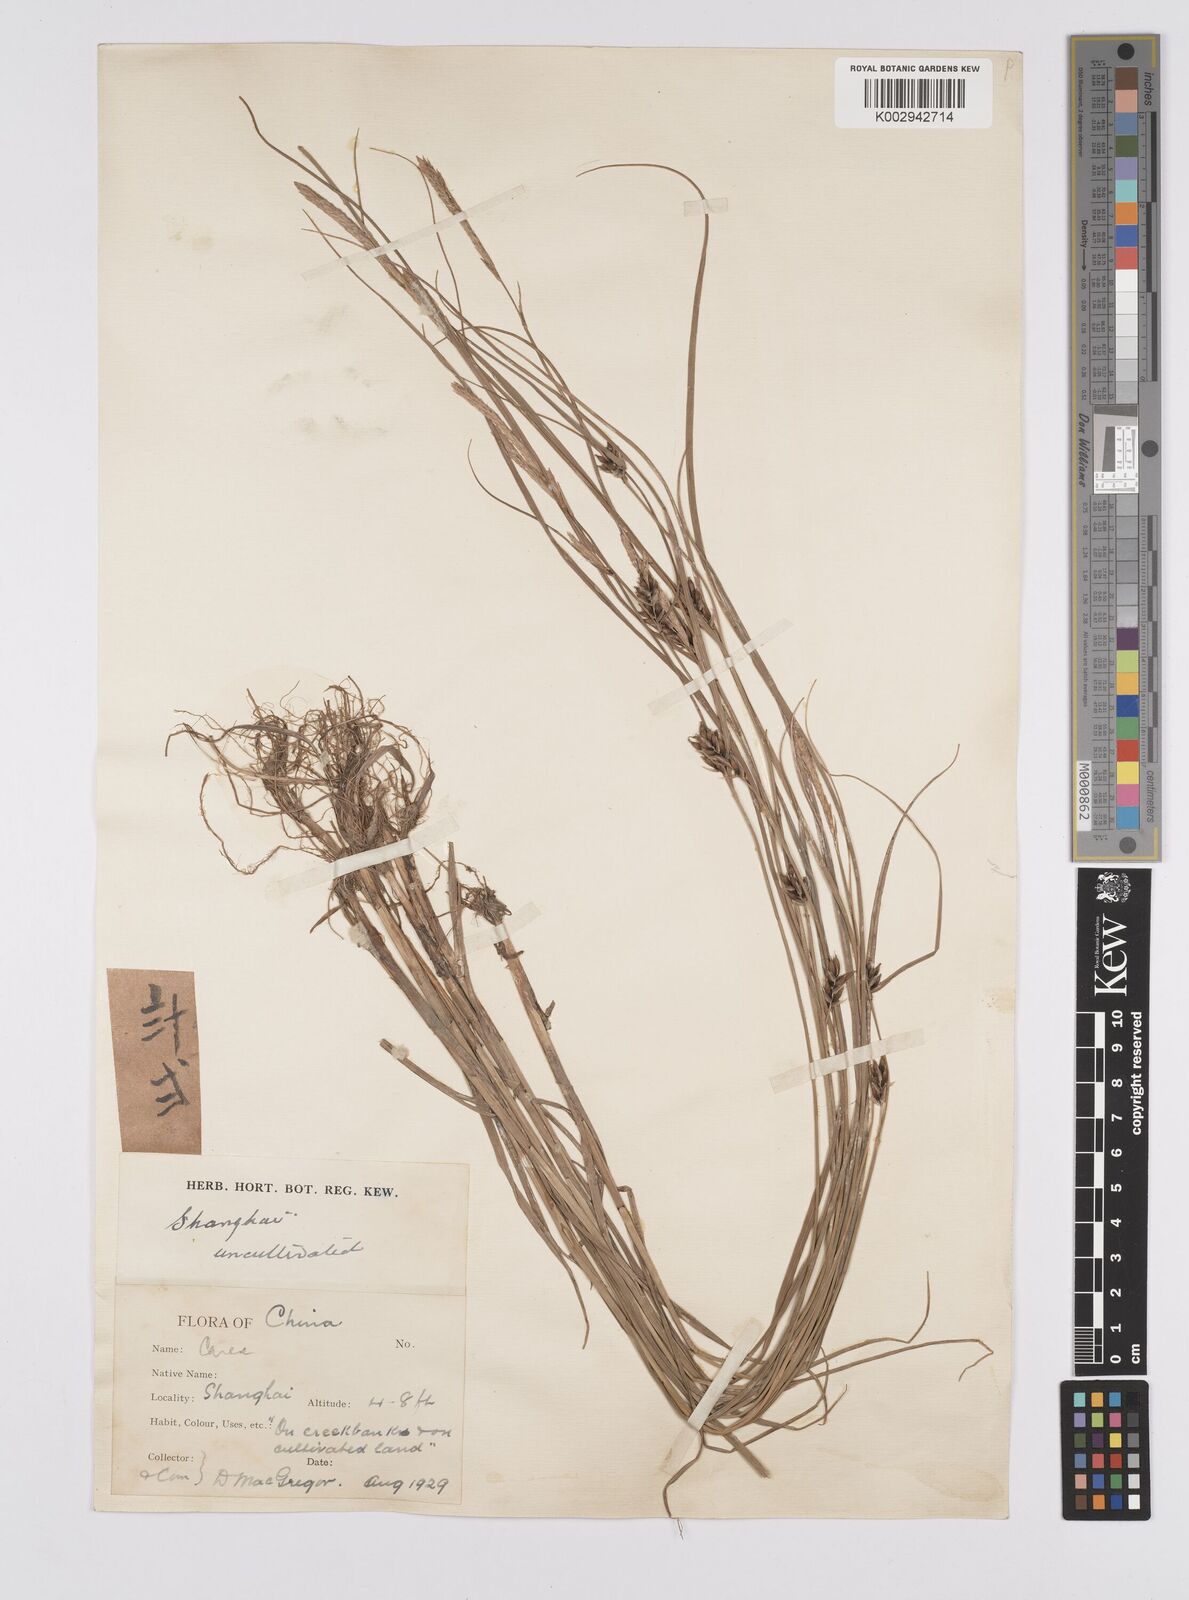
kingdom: Plantae
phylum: Tracheophyta
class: Liliopsida
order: Poales
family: Cyperaceae
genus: Carex
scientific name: Carex scabrifolia
